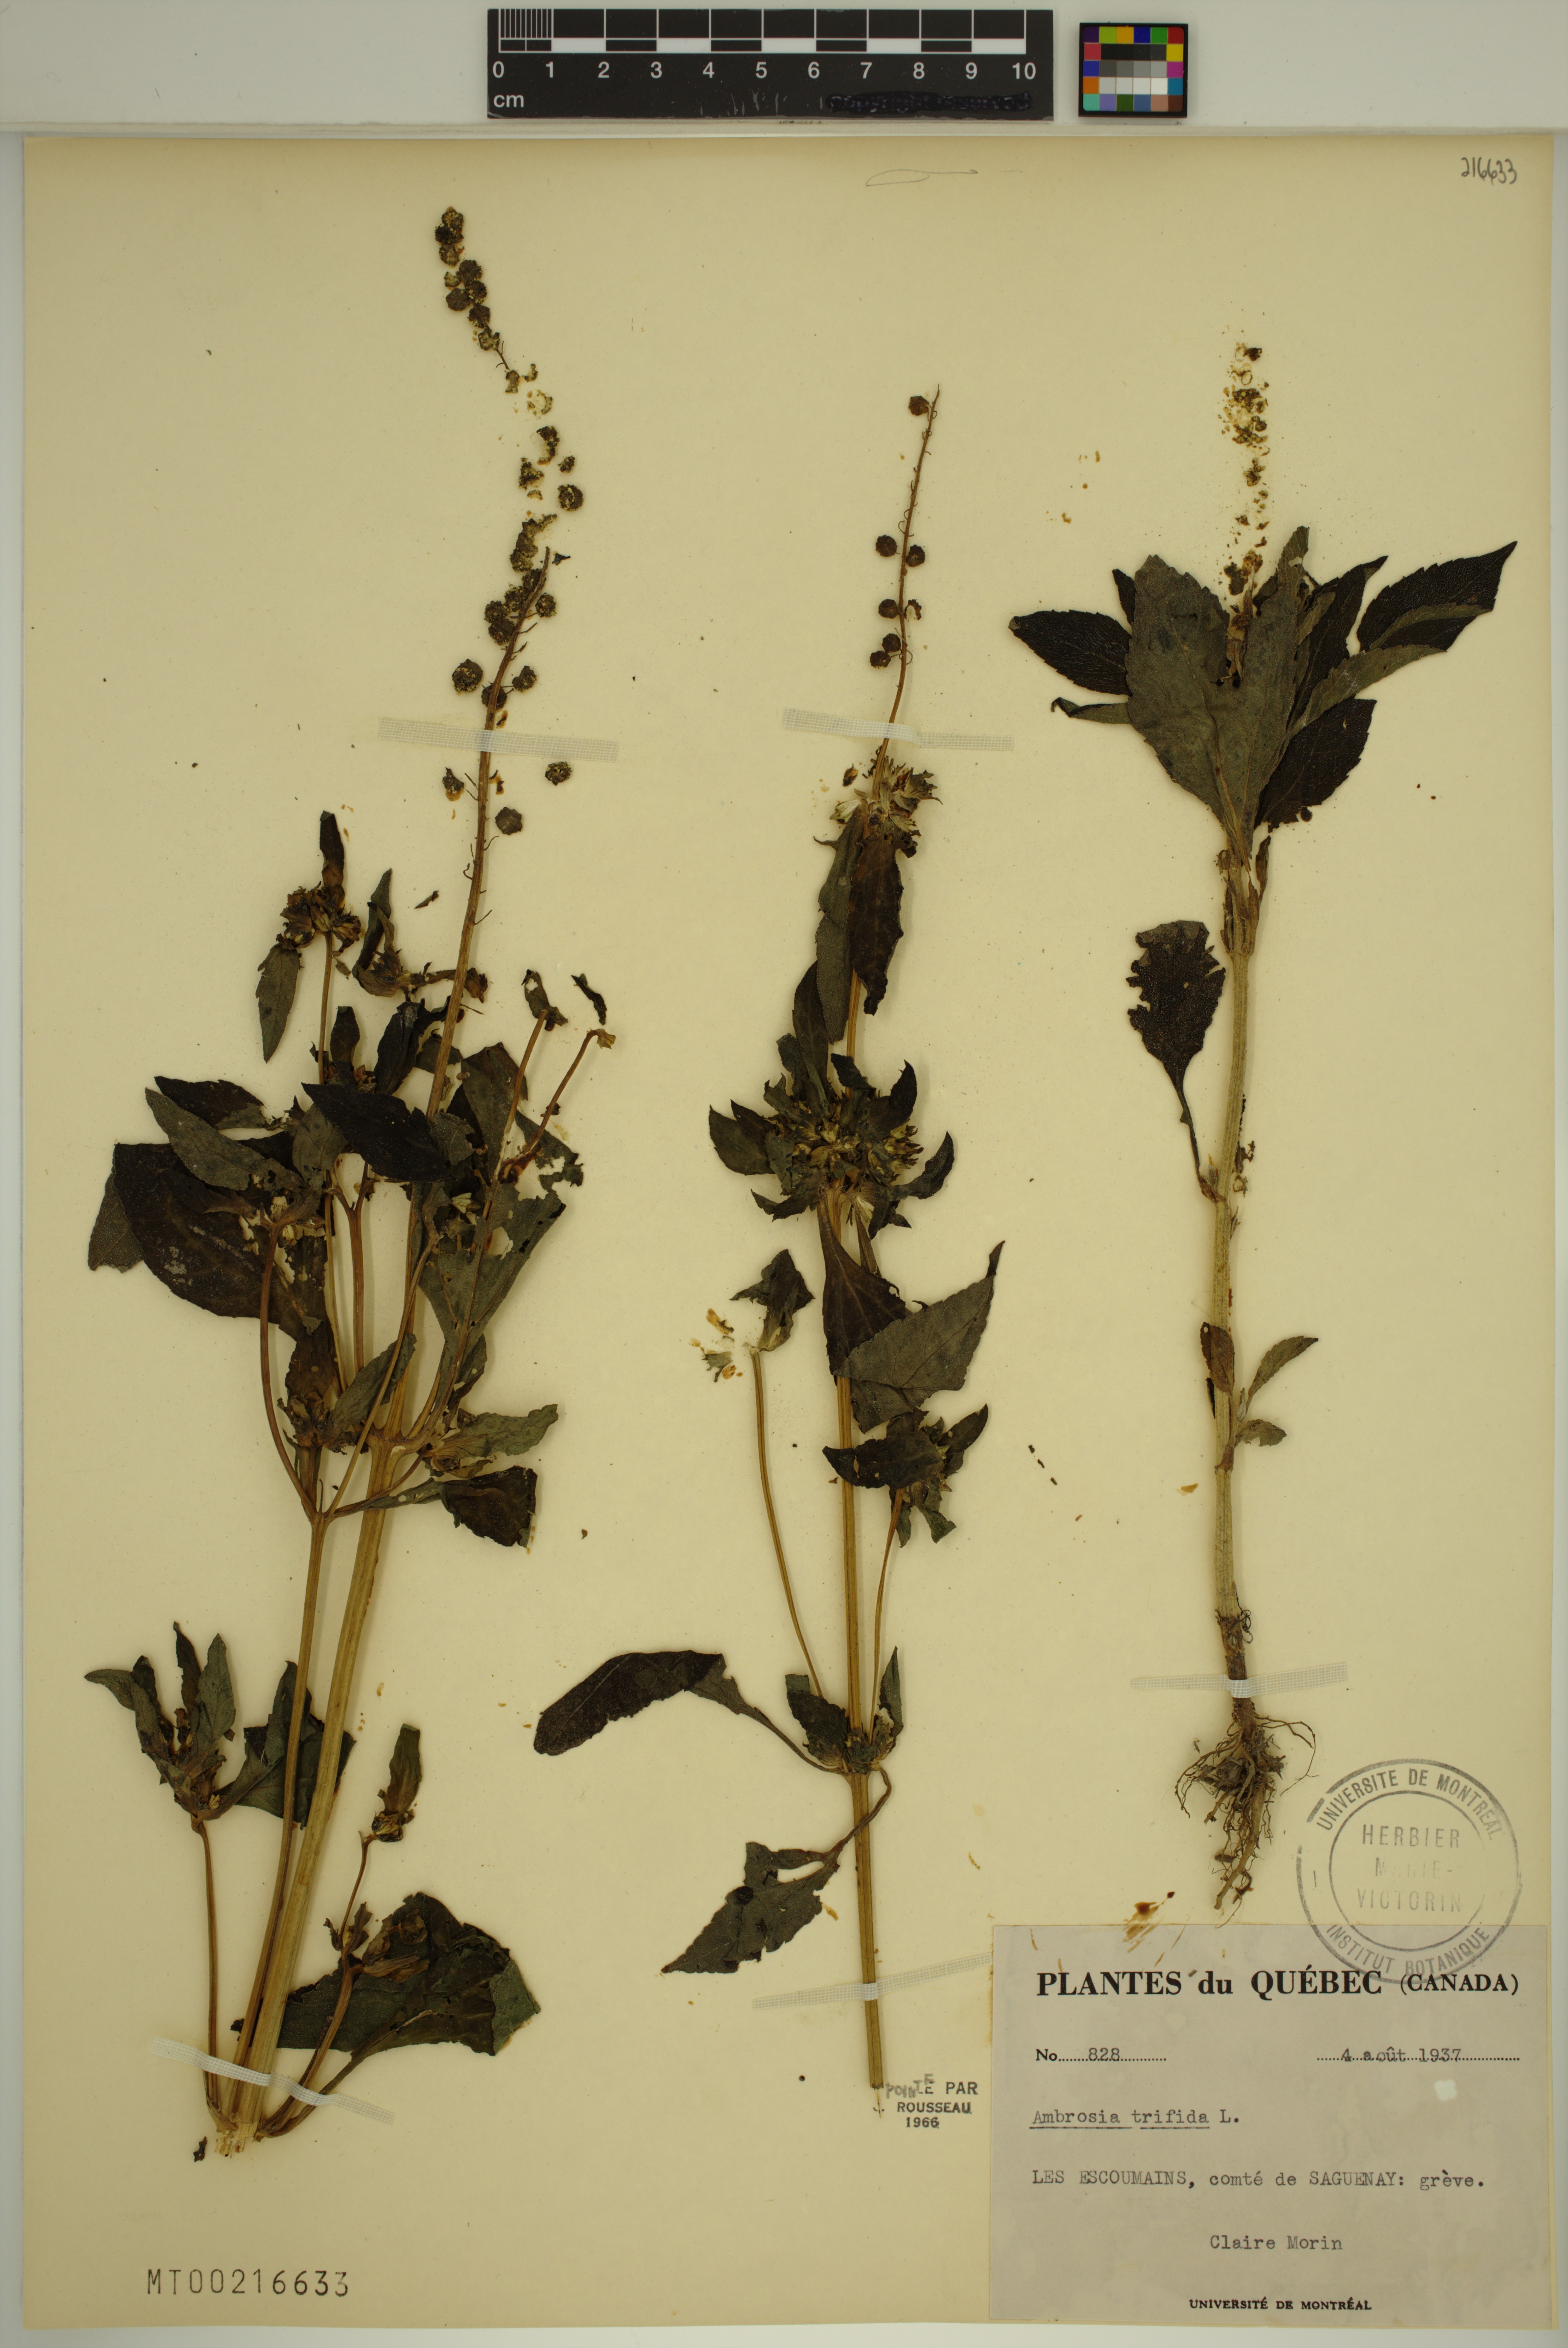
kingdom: Plantae
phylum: Tracheophyta
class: Magnoliopsida
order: Asterales
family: Asteraceae
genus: Ambrosia
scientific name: Ambrosia trifida
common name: Giant ragweed
